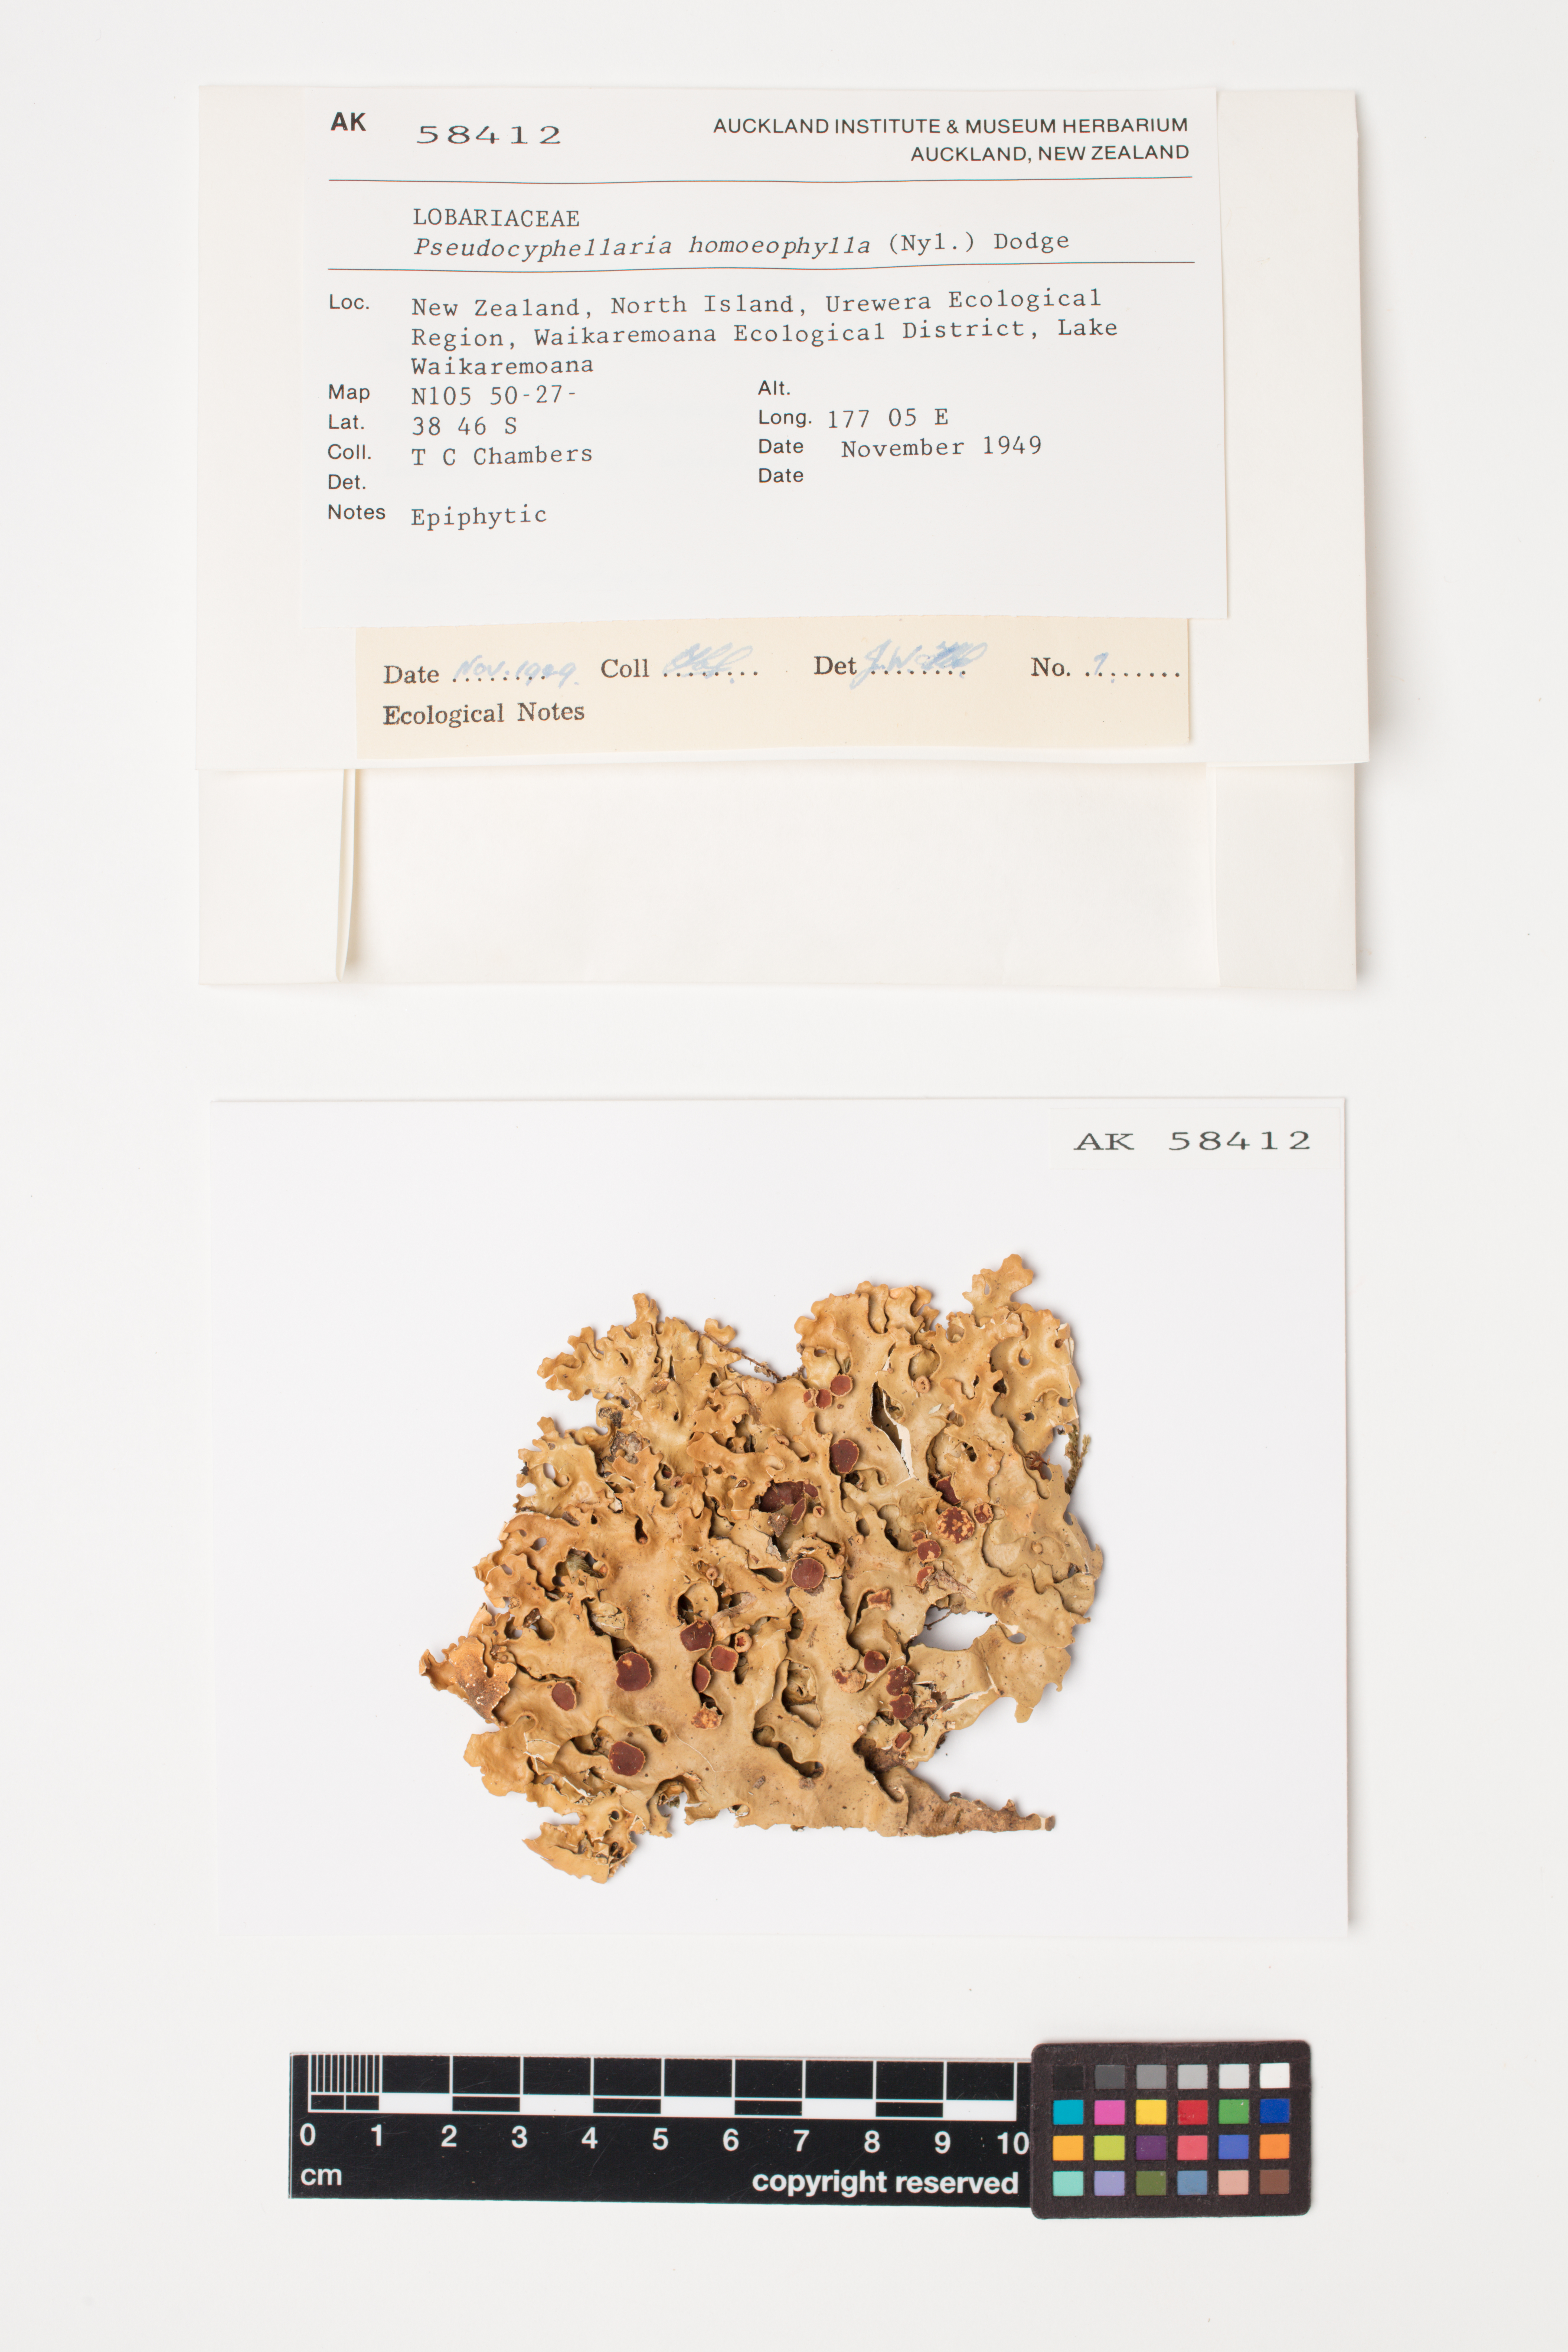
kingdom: Fungi
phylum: Ascomycota
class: Lecanoromycetes
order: Peltigerales
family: Lobariaceae
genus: Pseudocyphellaria
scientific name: Pseudocyphellaria homeophylla
